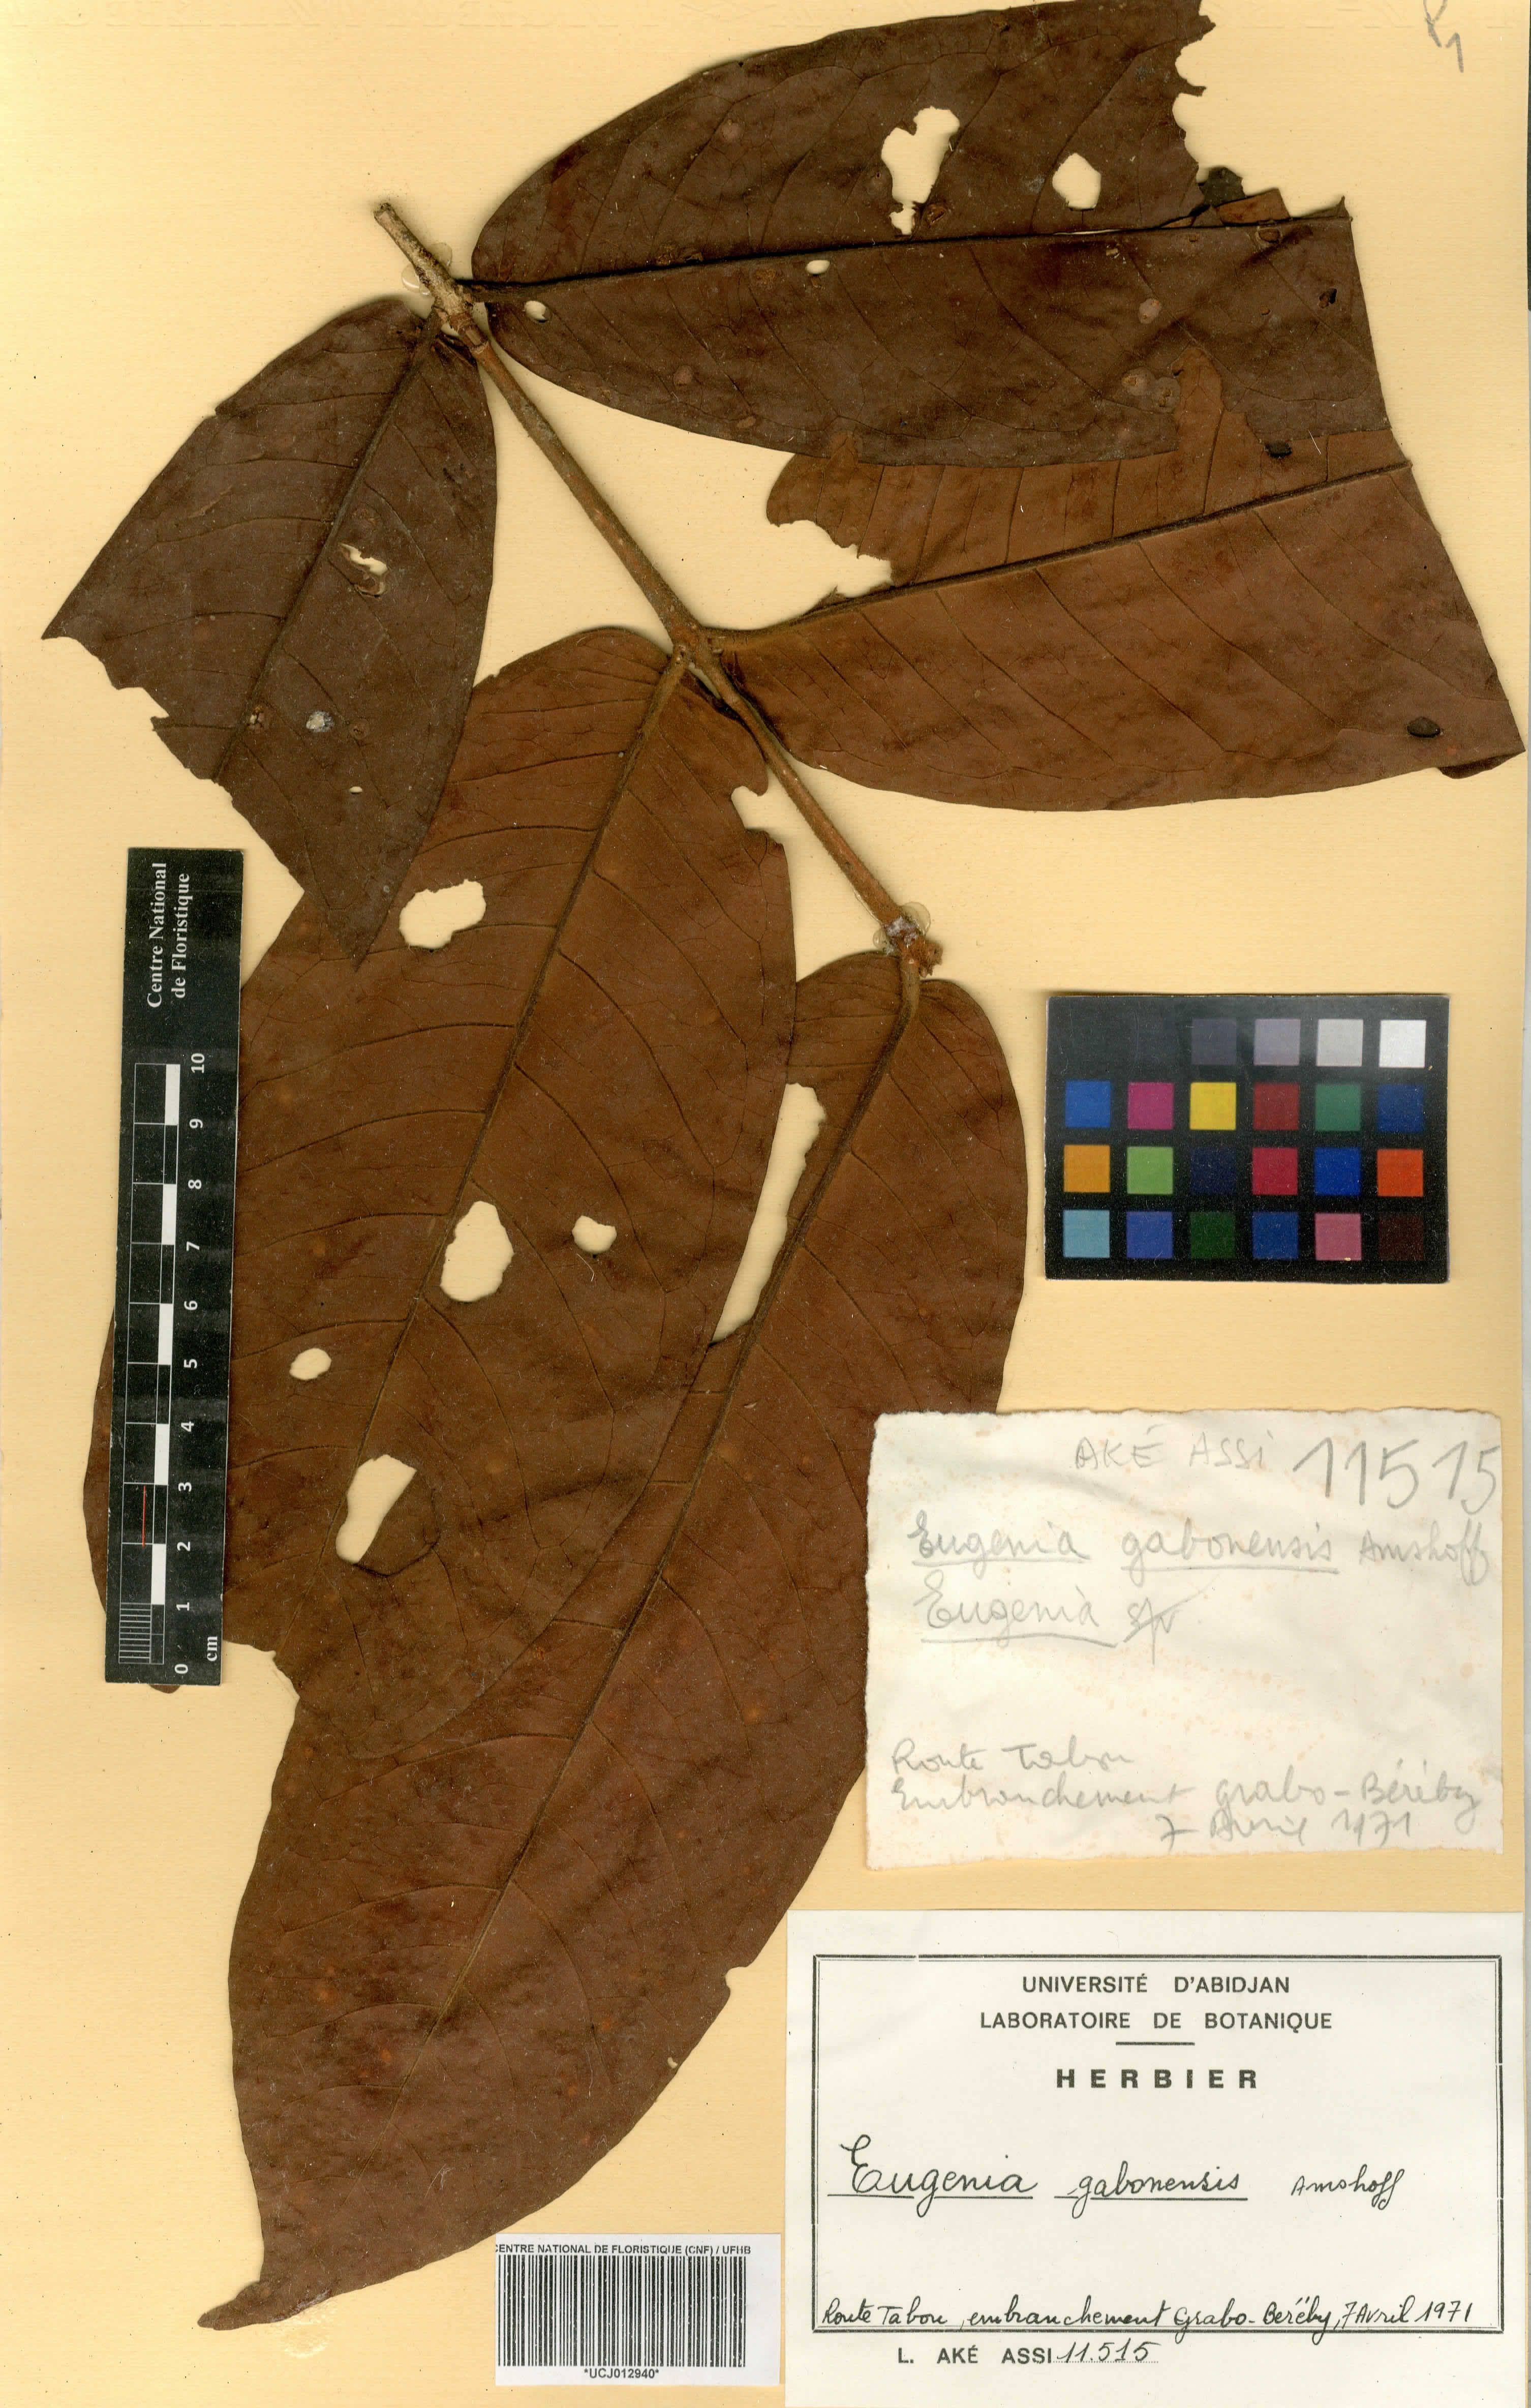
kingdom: Plantae
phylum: Tracheophyta
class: Magnoliopsida
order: Myrtales
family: Myrtaceae
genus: Eugenia
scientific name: Eugenia gabonensis
